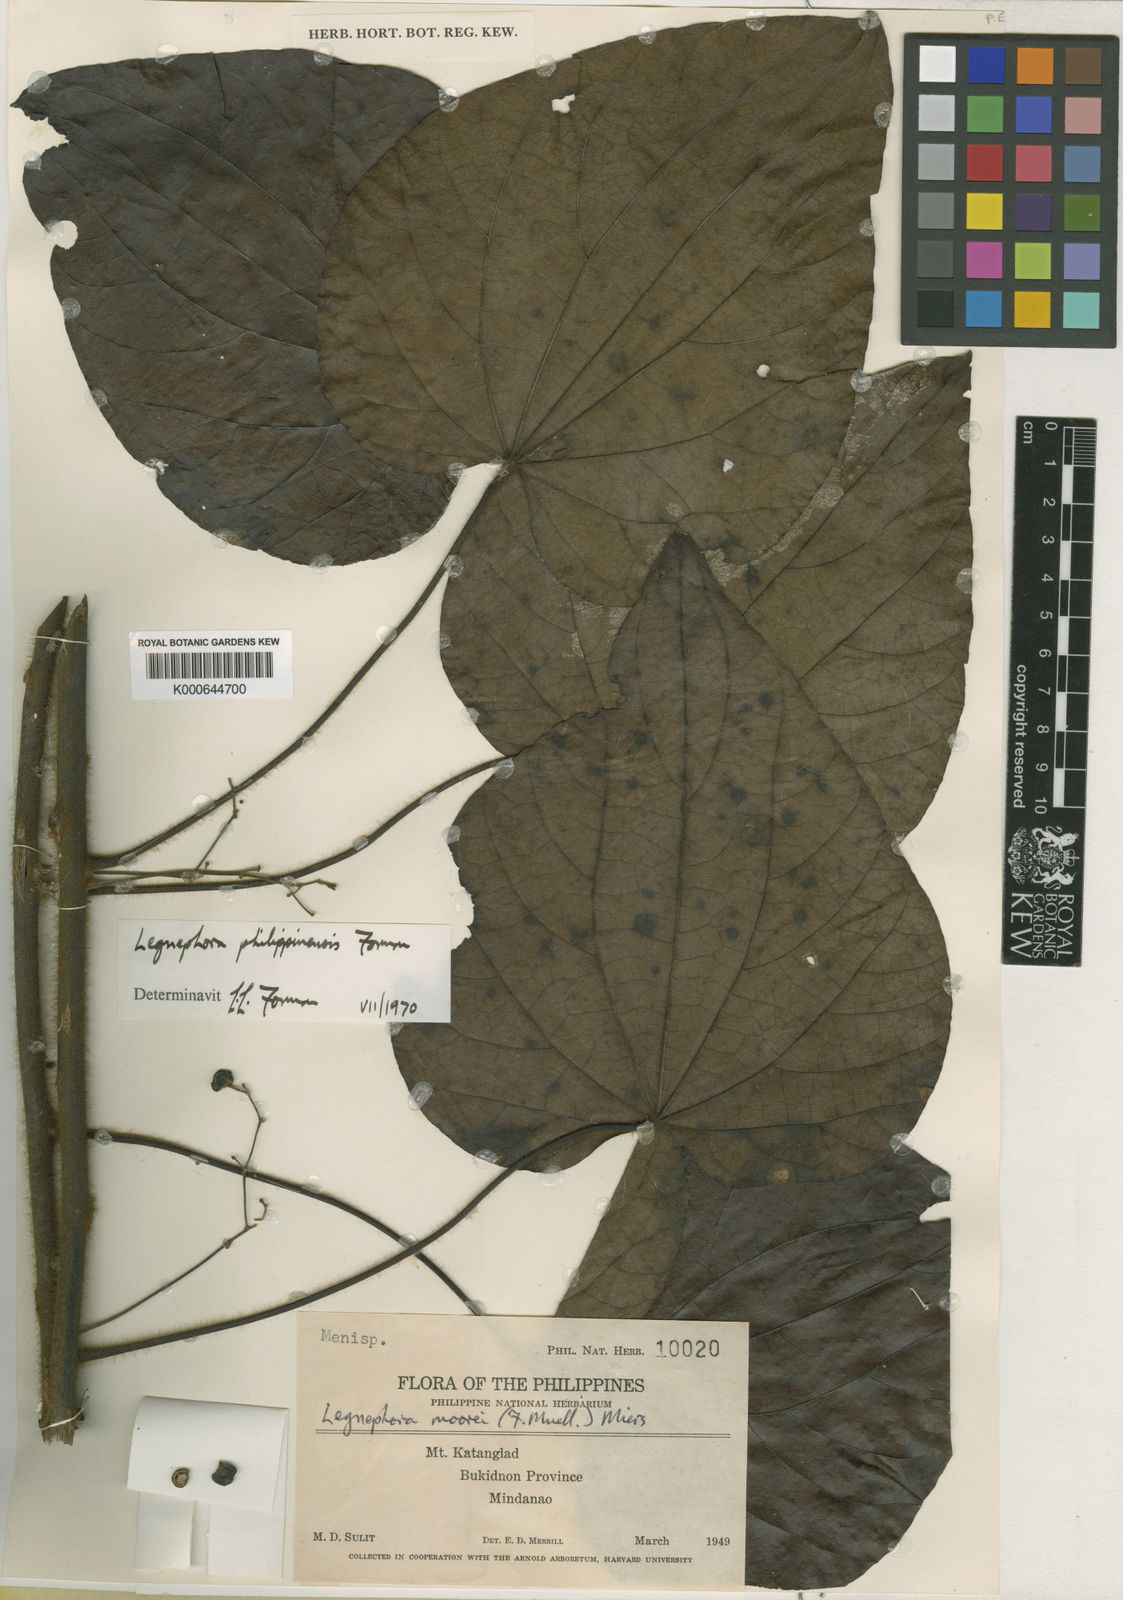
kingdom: Plantae
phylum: Tracheophyta
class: Magnoliopsida
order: Ranunculales
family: Menispermaceae
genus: Legnephora
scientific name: Legnephora philippinensis
